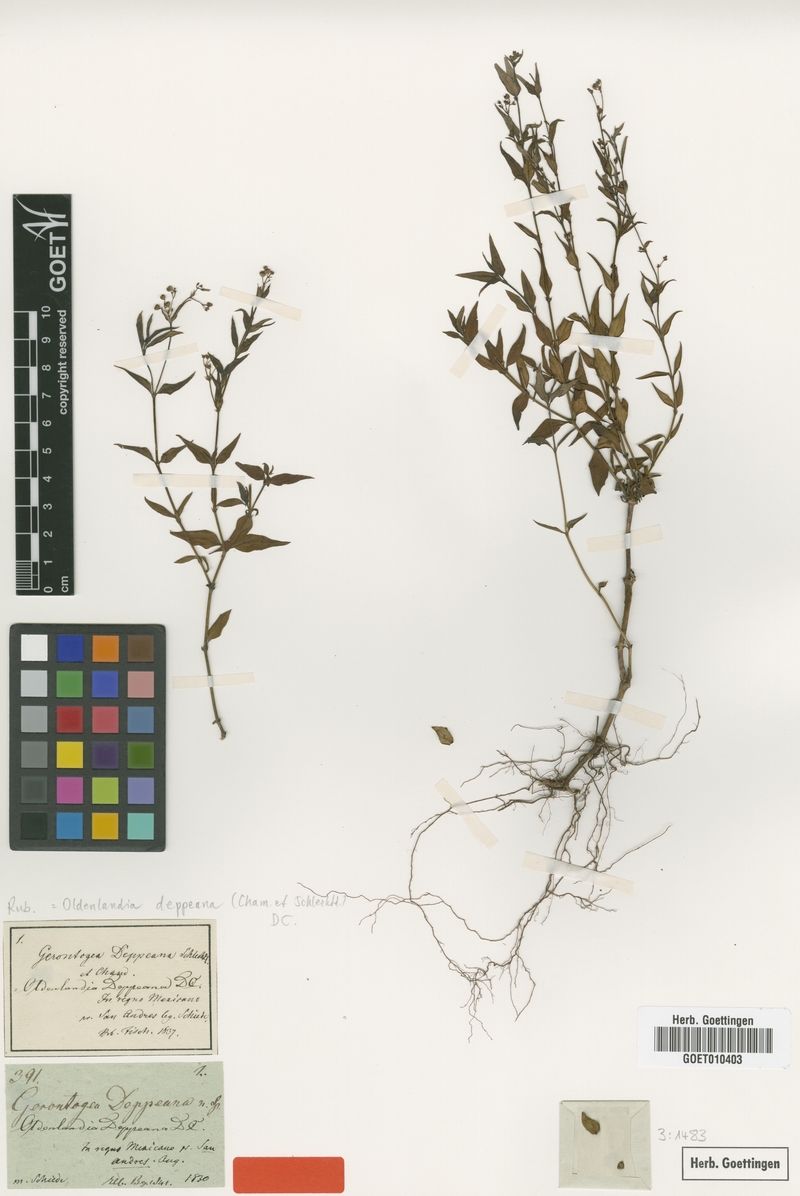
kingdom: Plantae
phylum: Tracheophyta
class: Magnoliopsida
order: Gentianales
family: Rubiaceae
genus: Oldenlandia
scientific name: Oldenlandia microtheca
